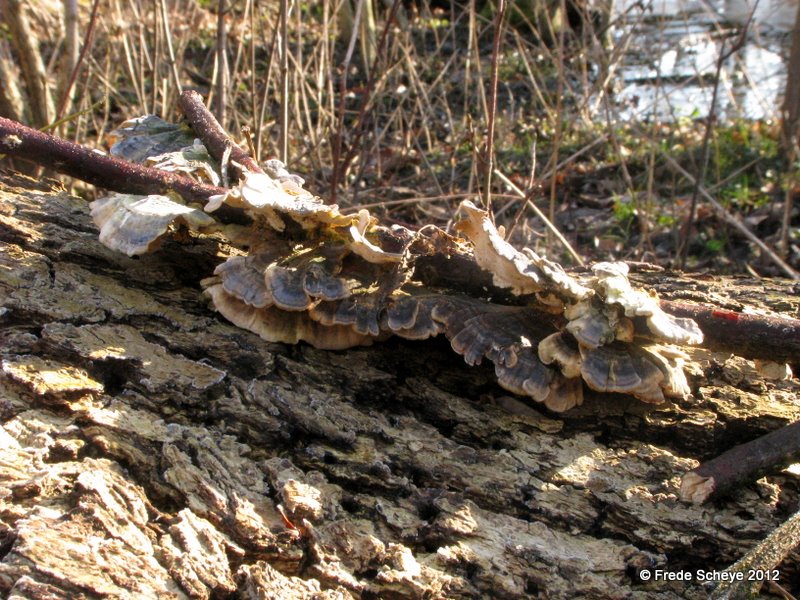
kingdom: Fungi
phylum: Basidiomycota
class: Agaricomycetes
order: Polyporales
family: Polyporaceae
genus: Trametes
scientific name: Trametes versicolor
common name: broget læderporesvamp
